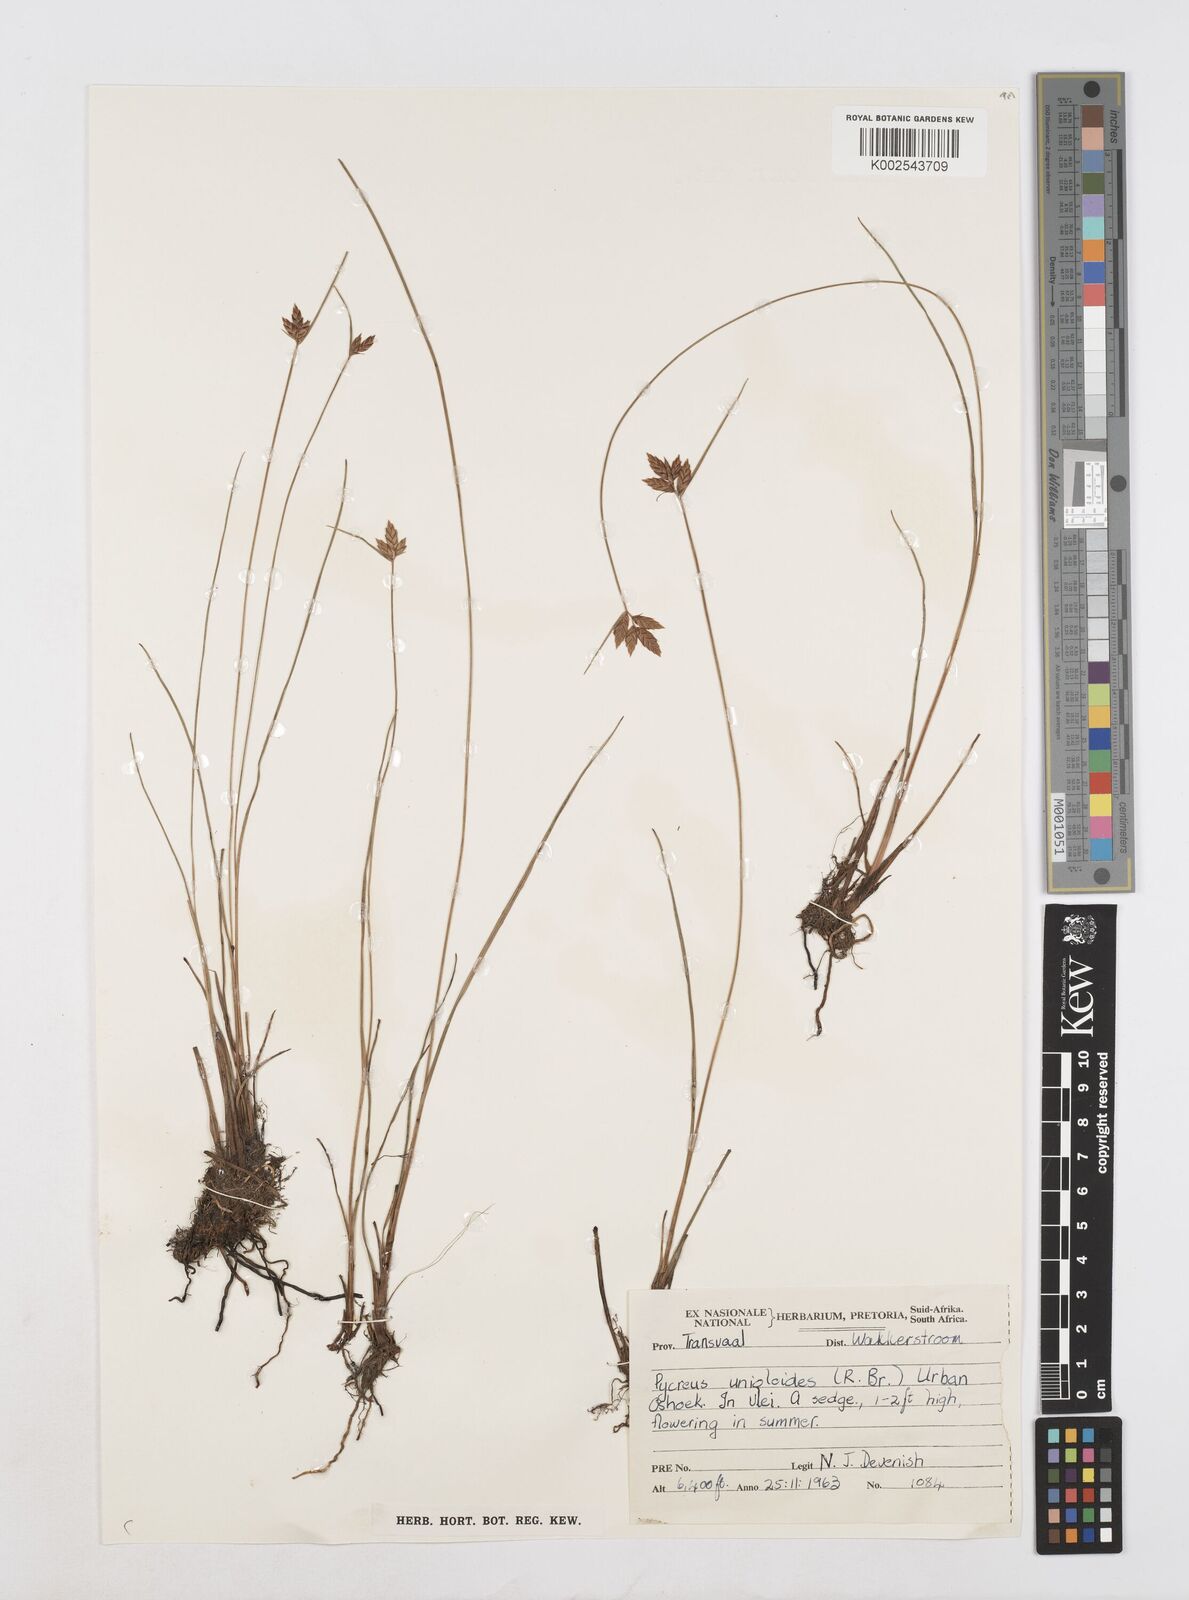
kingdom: Plantae
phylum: Tracheophyta
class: Liliopsida
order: Poales
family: Cyperaceae
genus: Cyperus
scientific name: Cyperus unioloides
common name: Uniola flatsedge
